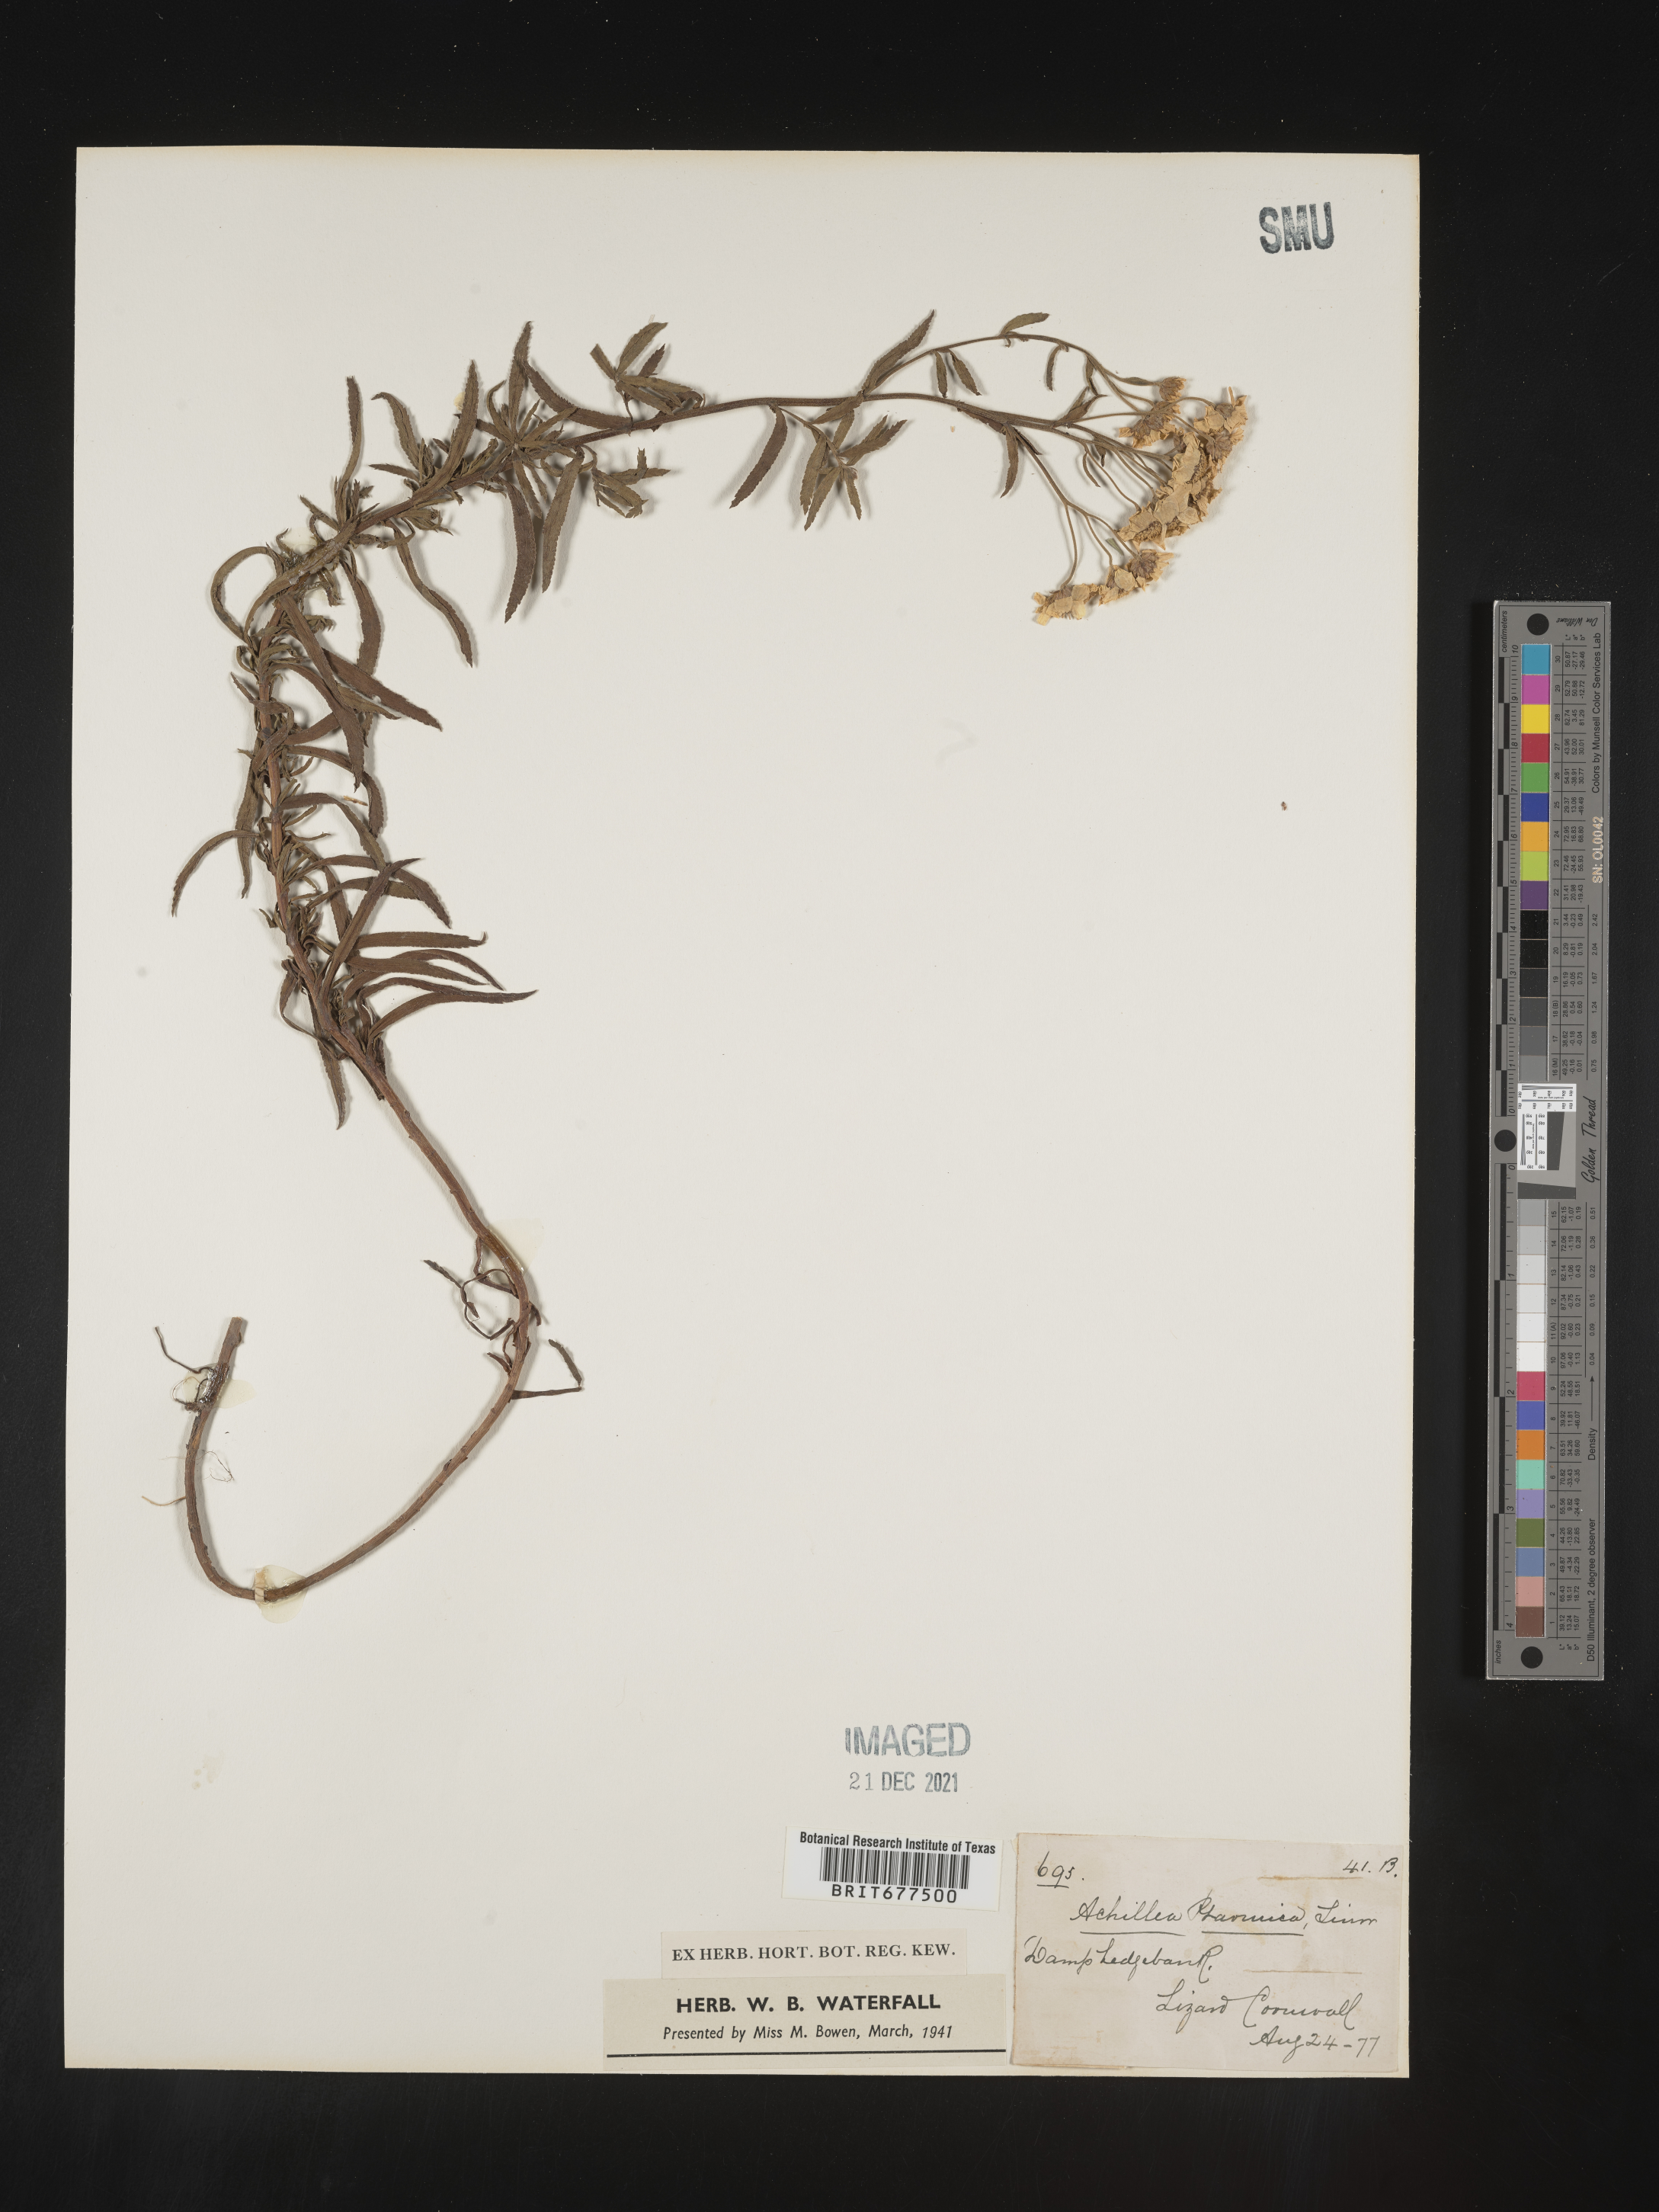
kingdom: Plantae
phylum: Tracheophyta
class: Magnoliopsida
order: Asterales
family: Asteraceae
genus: Achillea
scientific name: Achillea ptarmica
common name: Sneezeweed
